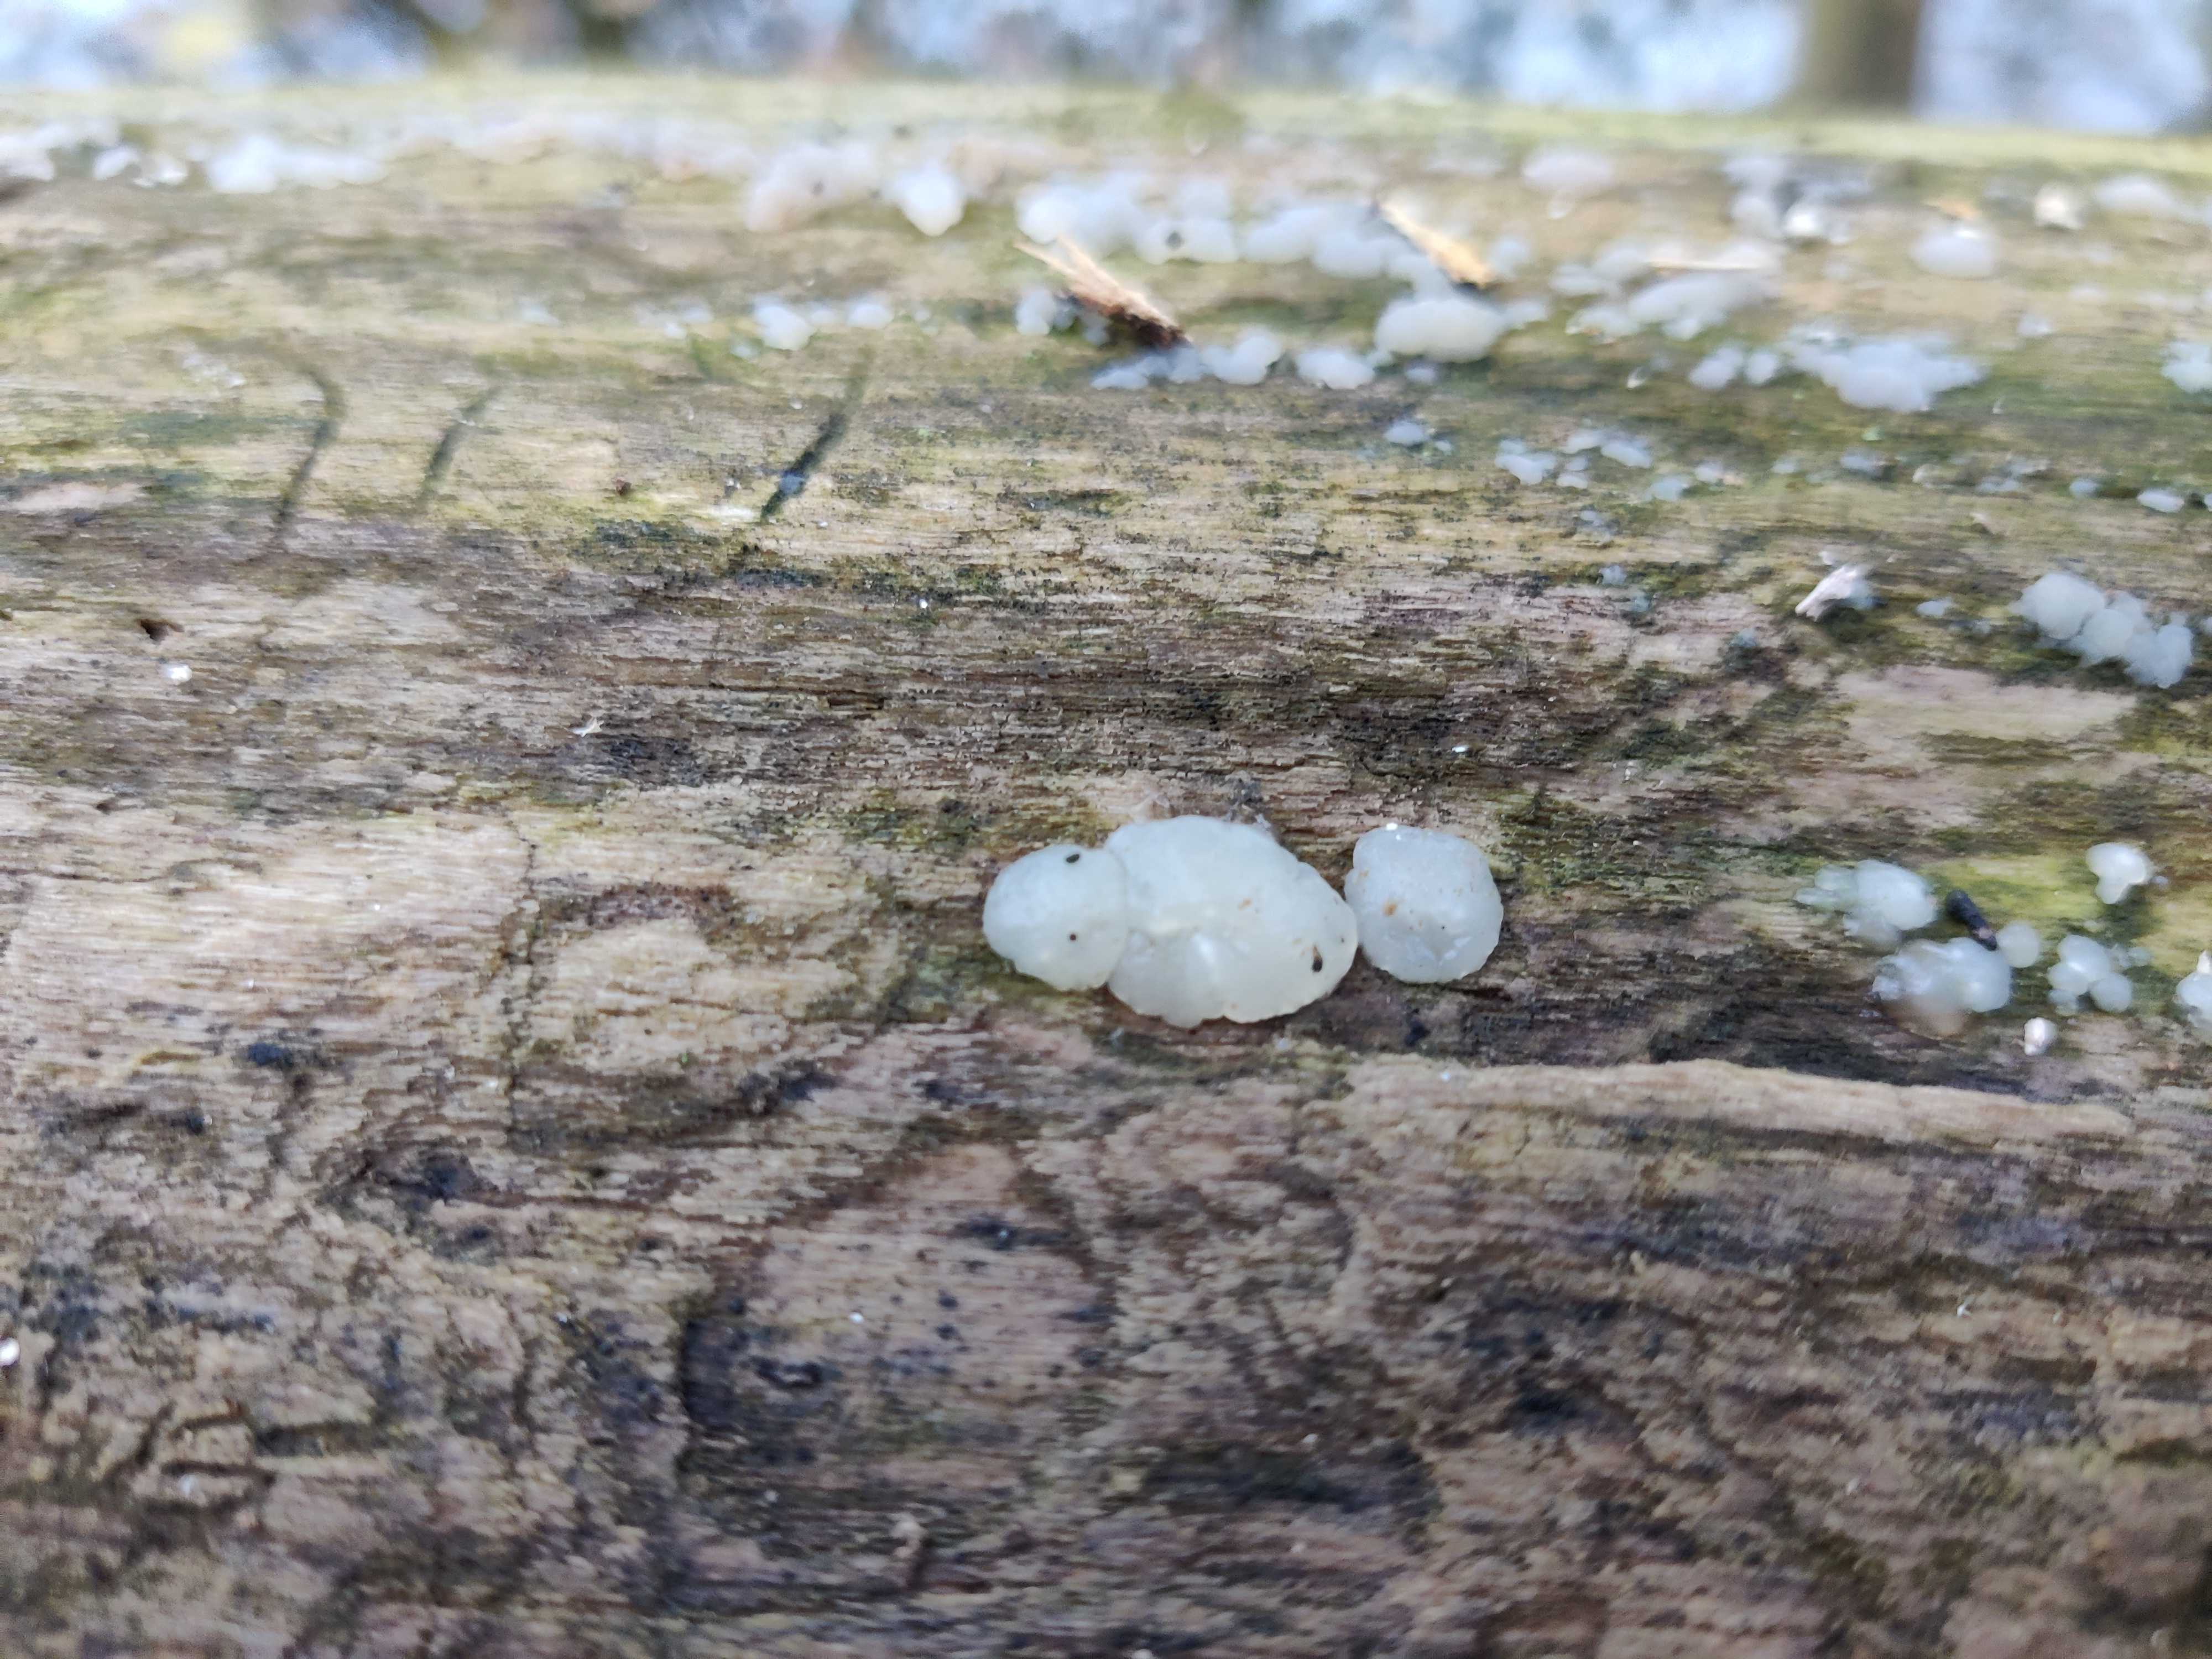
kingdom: Fungi
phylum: Basidiomycota
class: Agaricomycetes
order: Auriculariales
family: Hyaloriaceae
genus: Myxarium
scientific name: Myxarium nucleatum
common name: klar bævretop
